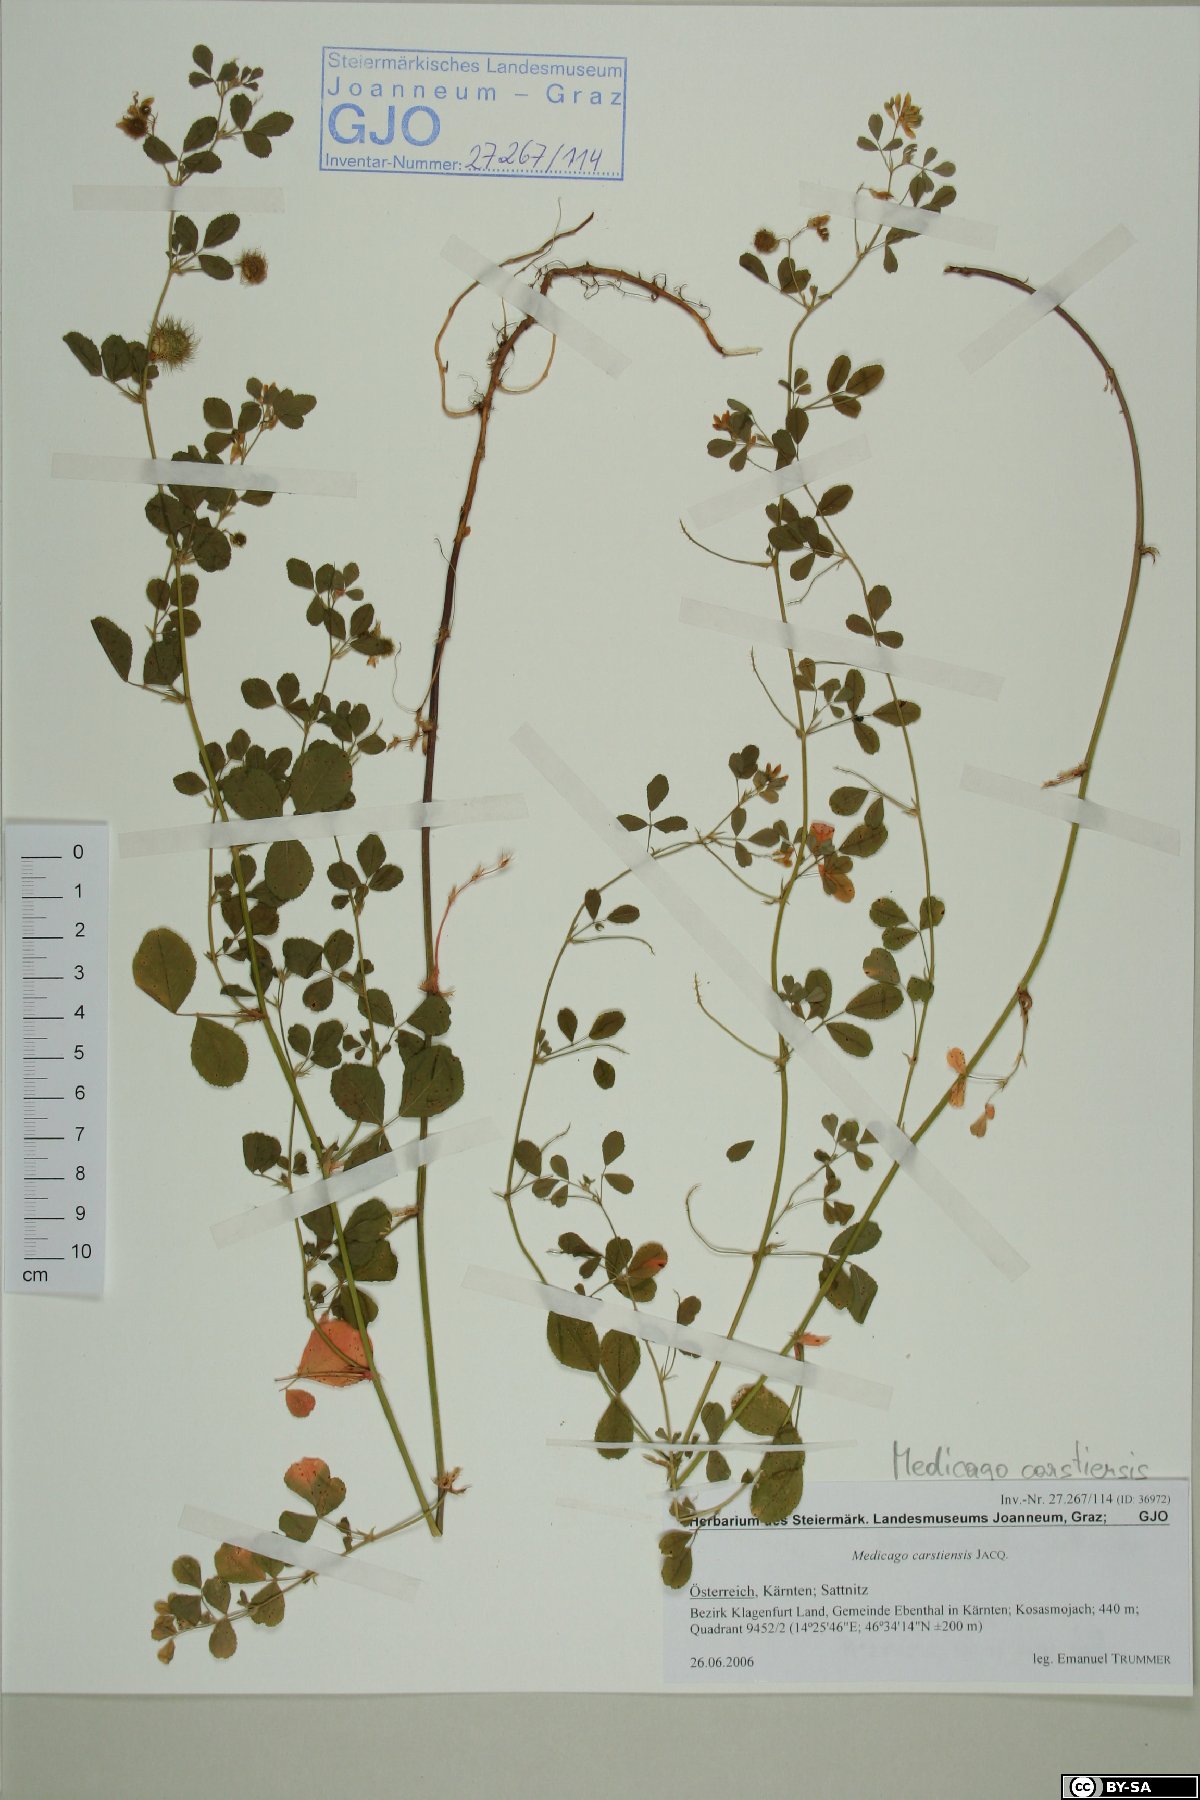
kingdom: Plantae
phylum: Tracheophyta
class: Magnoliopsida
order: Fabales
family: Fabaceae
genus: Medicago
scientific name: Medicago carstiensis
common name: Creeping-rooted medic
